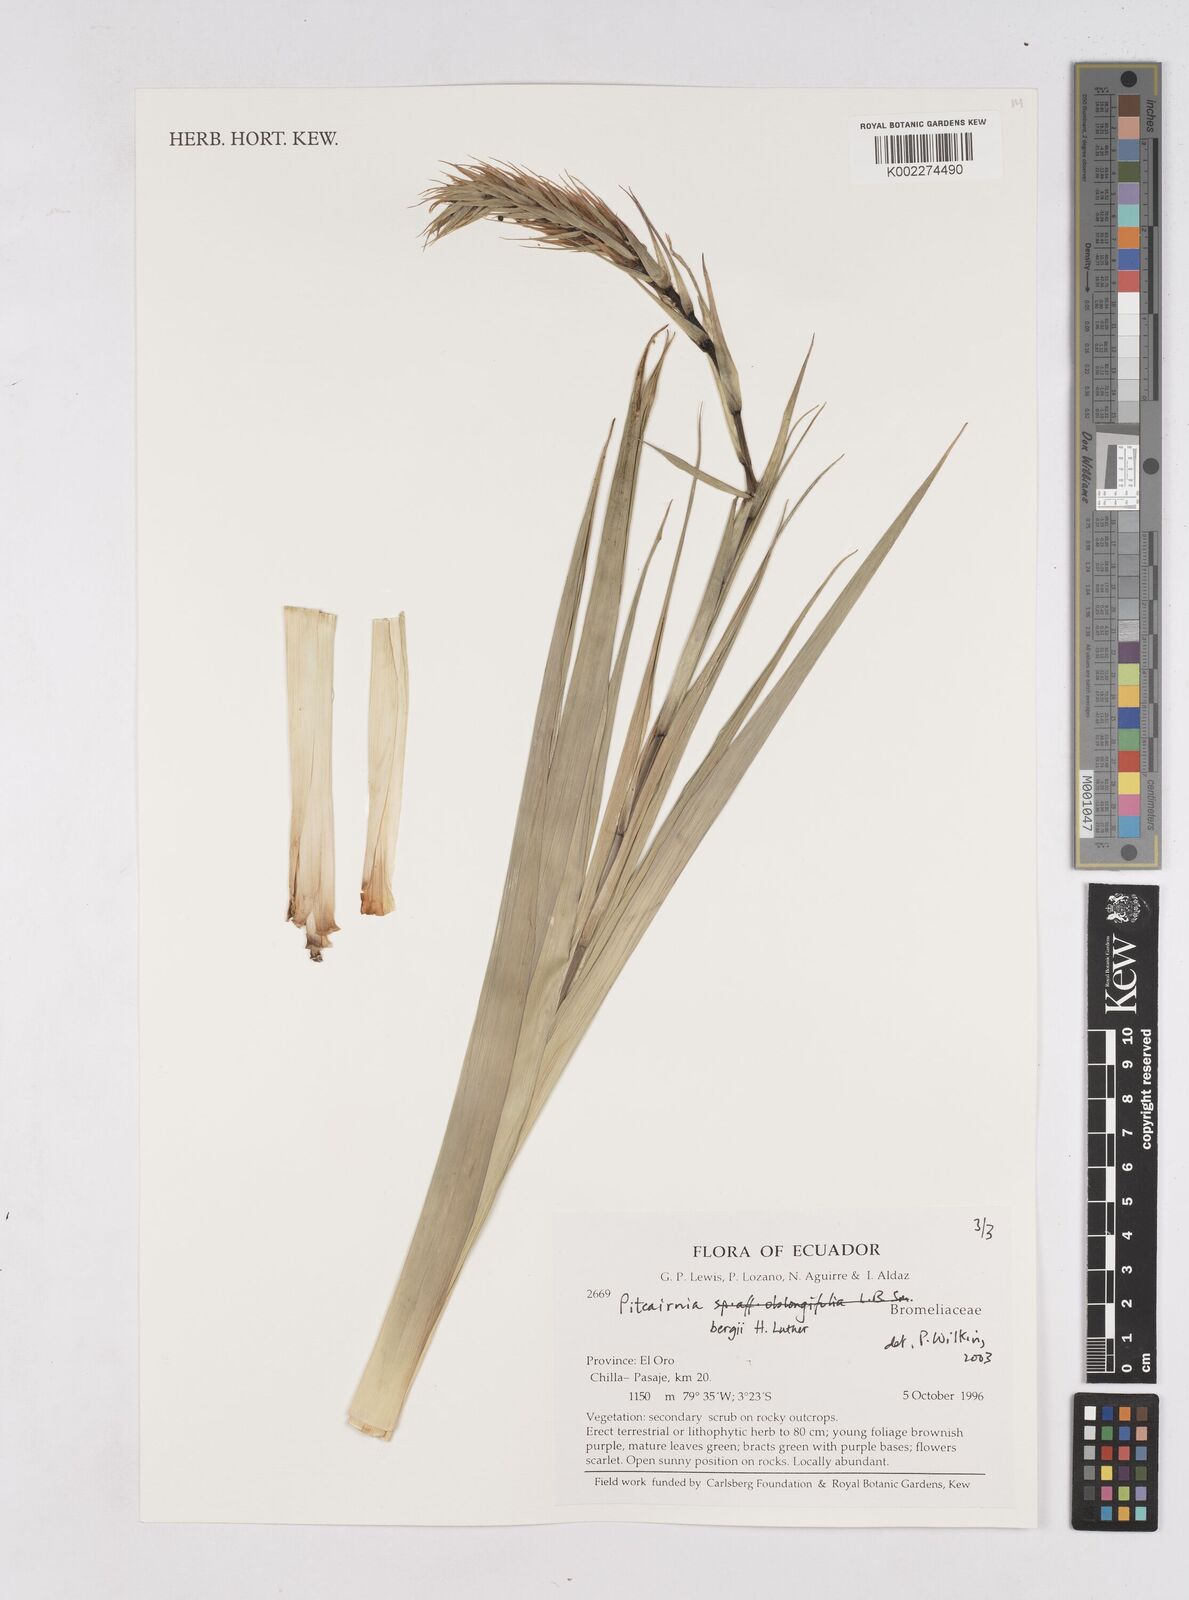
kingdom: Plantae
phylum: Tracheophyta
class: Liliopsida
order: Poales
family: Bromeliaceae
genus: Pitcairnia
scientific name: Pitcairnia bergii
